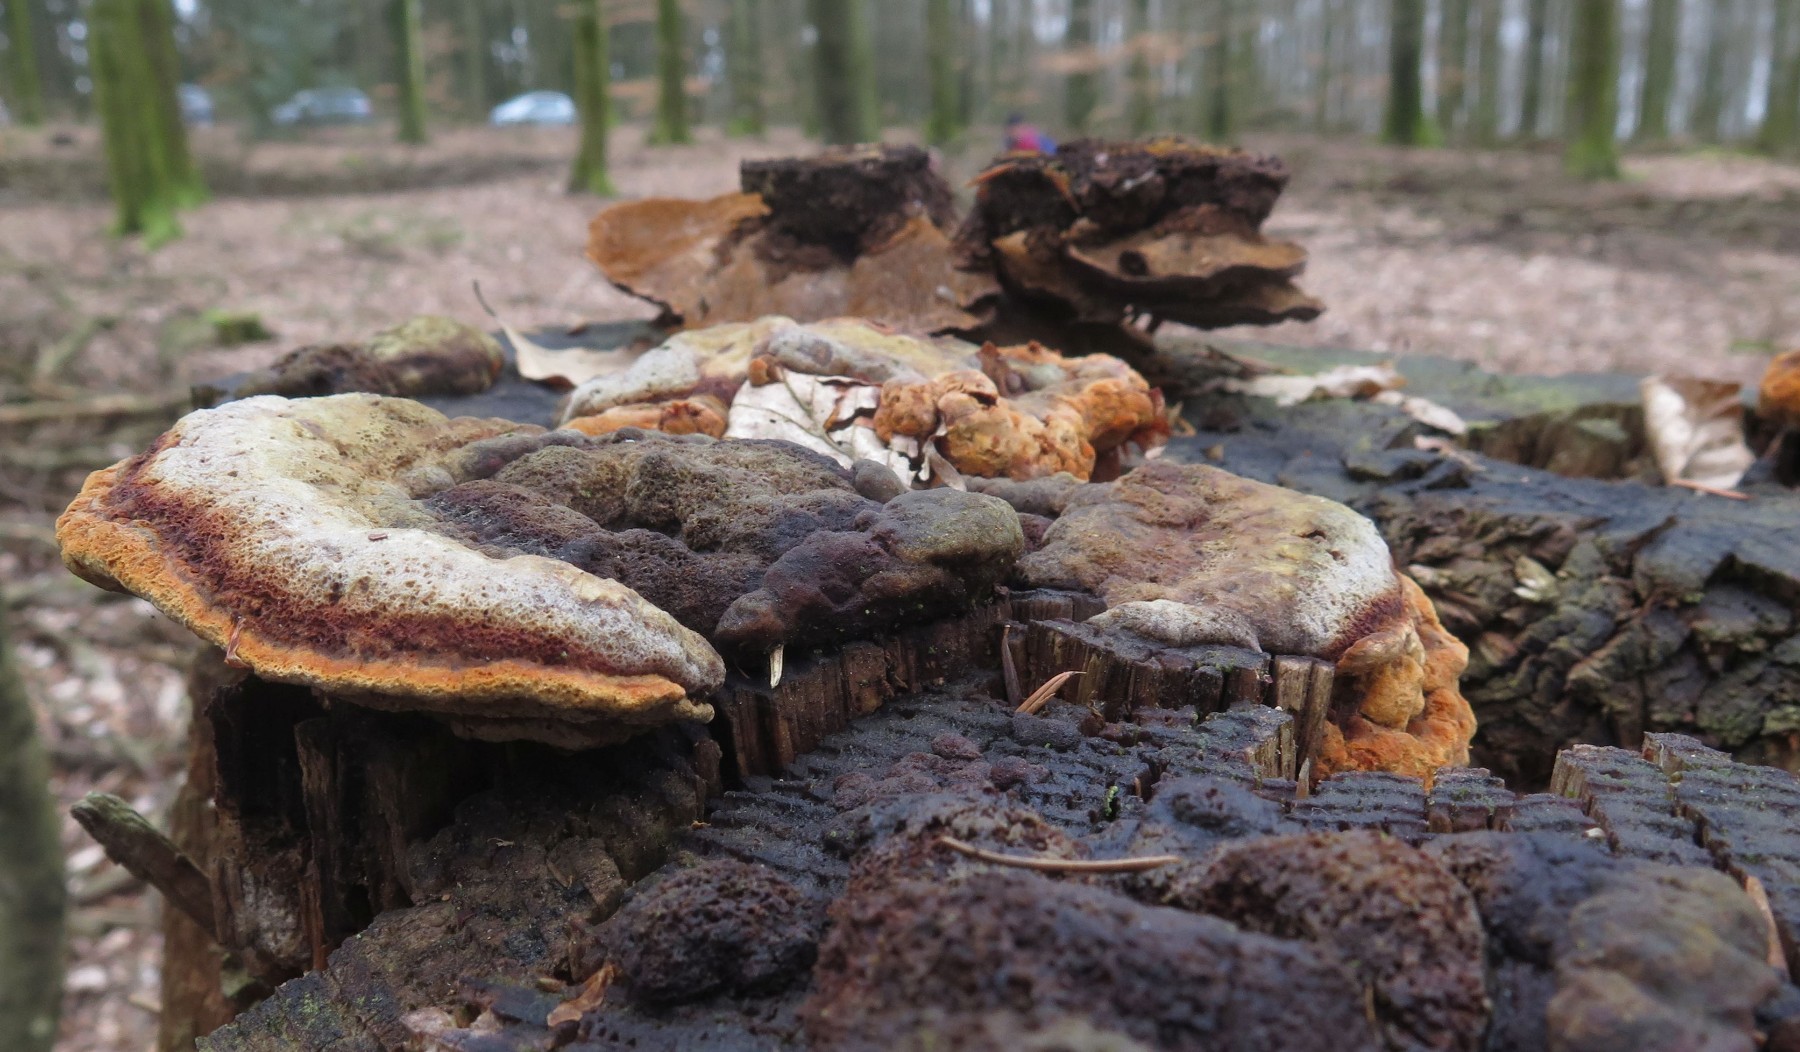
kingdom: Fungi
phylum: Basidiomycota
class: Agaricomycetes
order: Gloeophyllales
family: Gloeophyllaceae
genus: Gloeophyllum
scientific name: Gloeophyllum odoratum
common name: duftende korkhat
